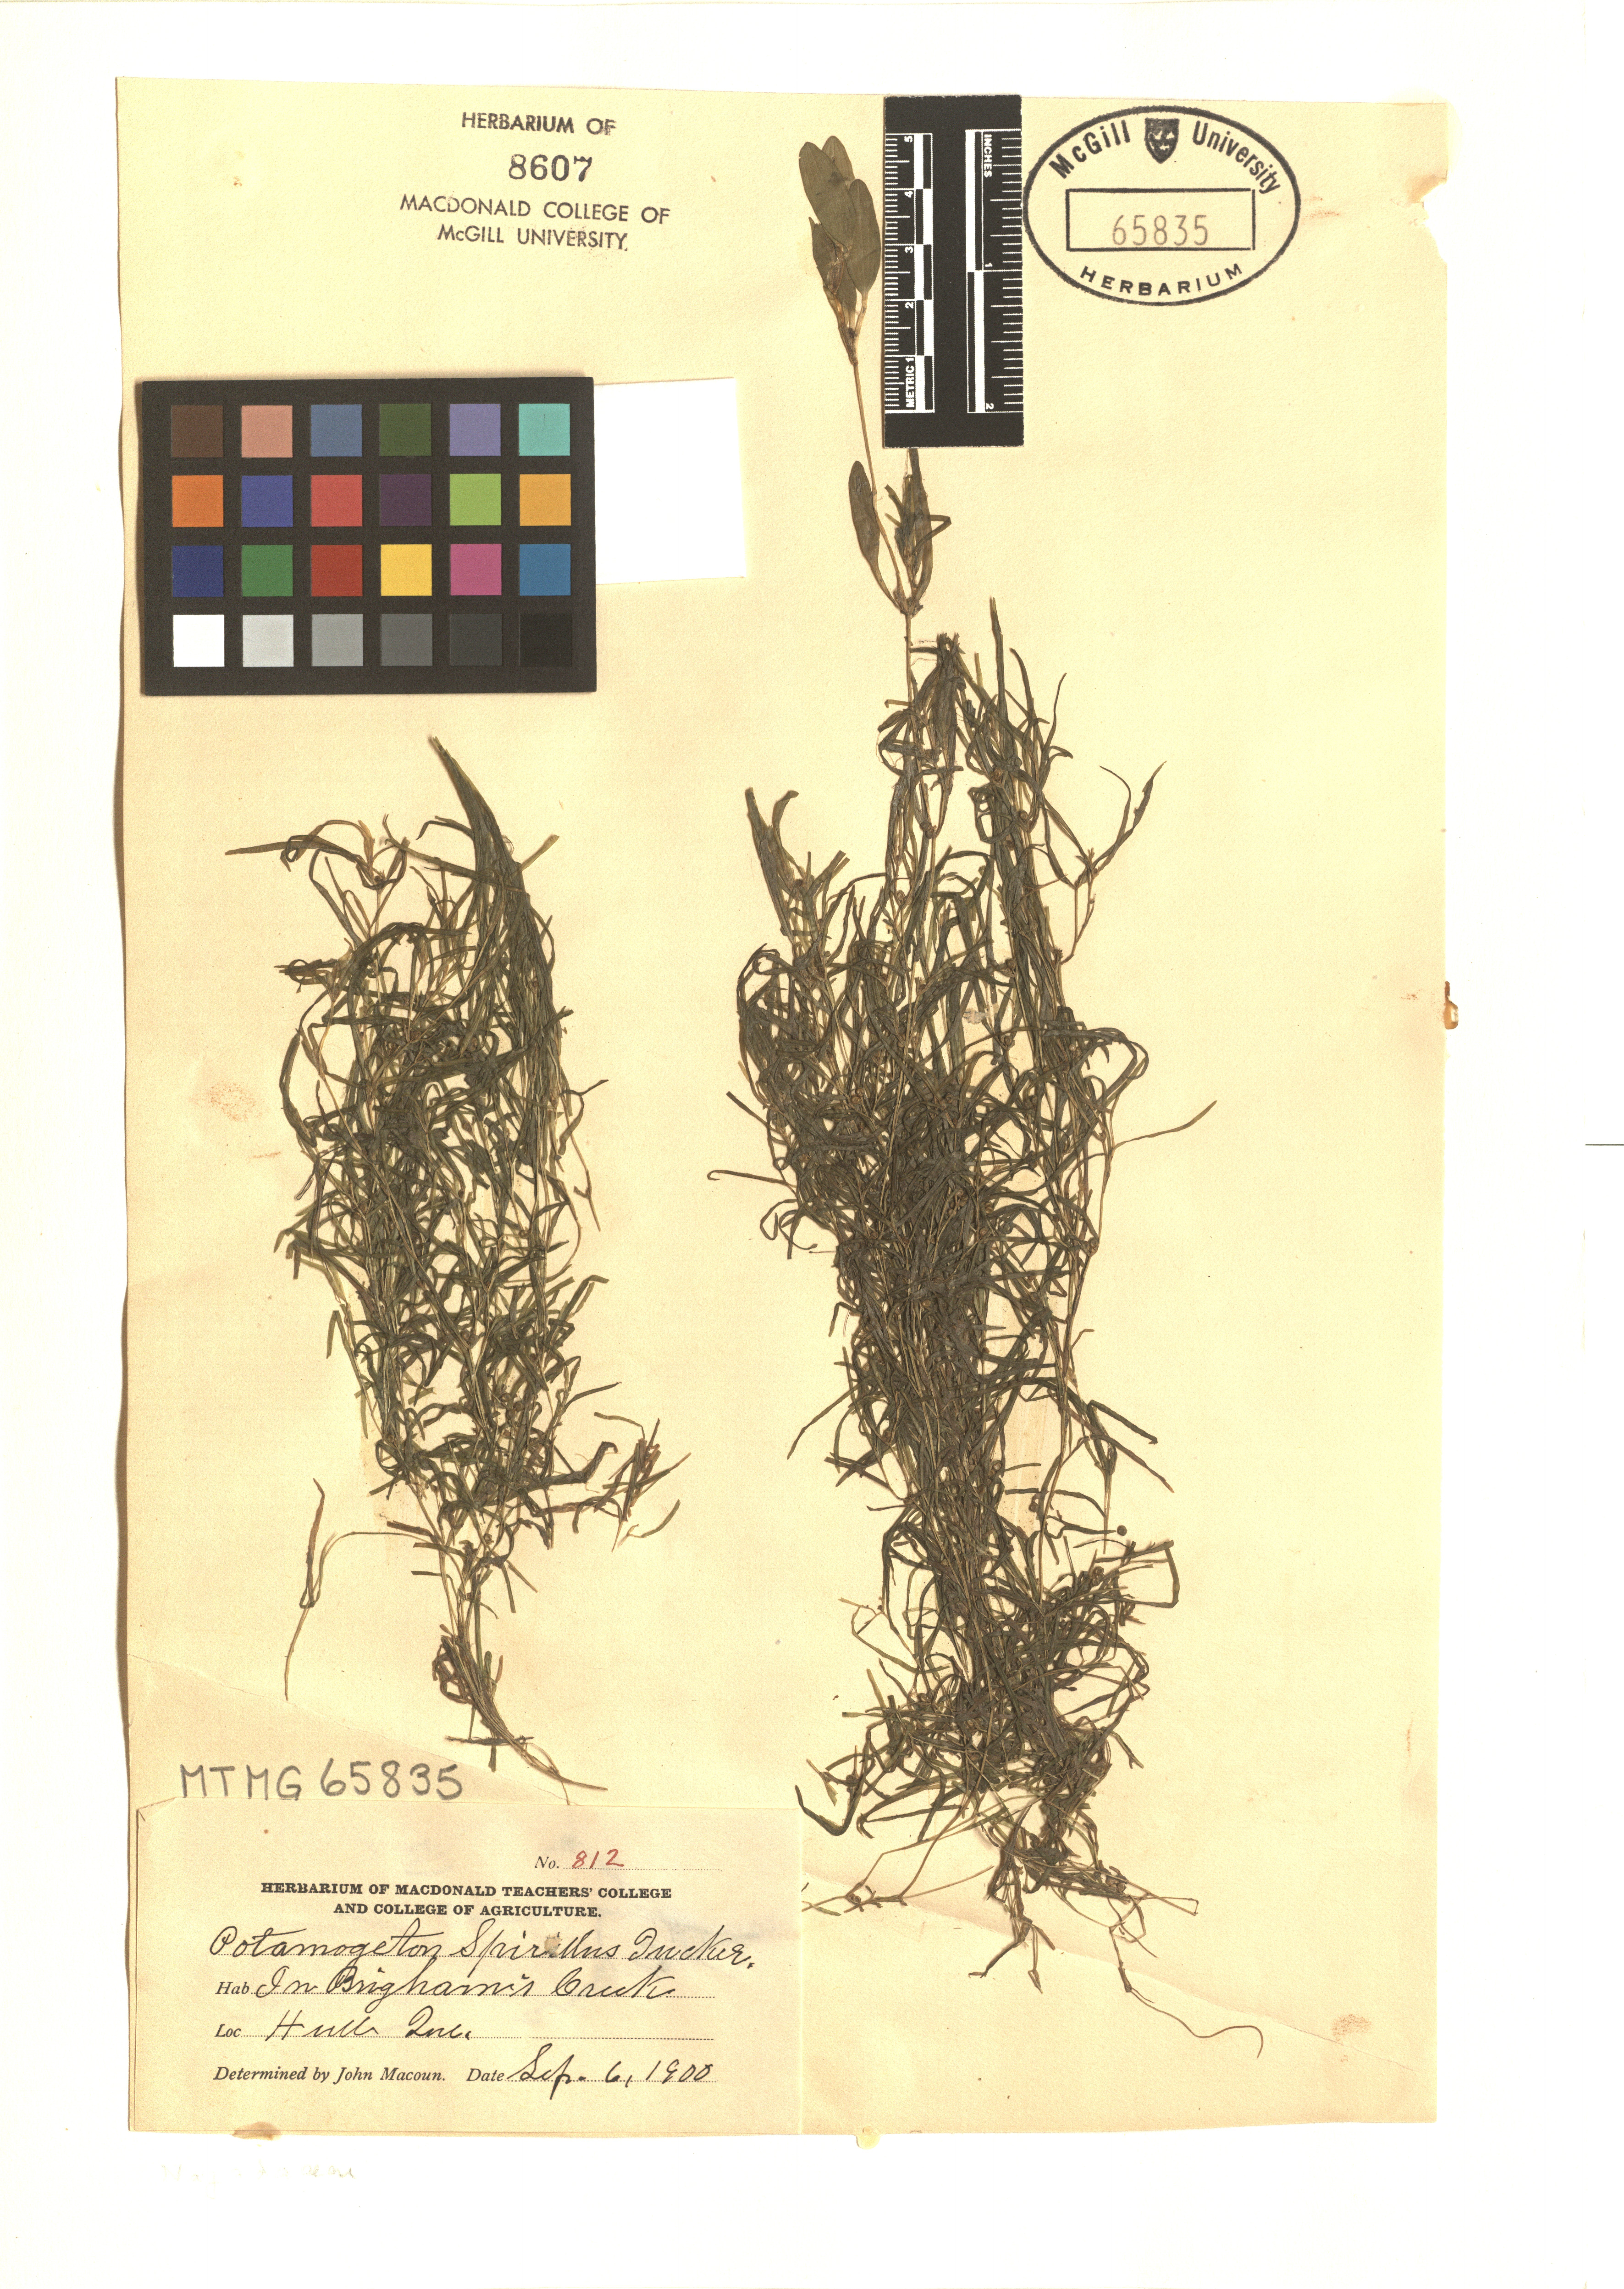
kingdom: Plantae
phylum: Tracheophyta
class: Liliopsida
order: Alismatales
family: Potamogetonaceae
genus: Potamogeton
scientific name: Potamogeton spirillus
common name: Northern snail-seed pondweed
